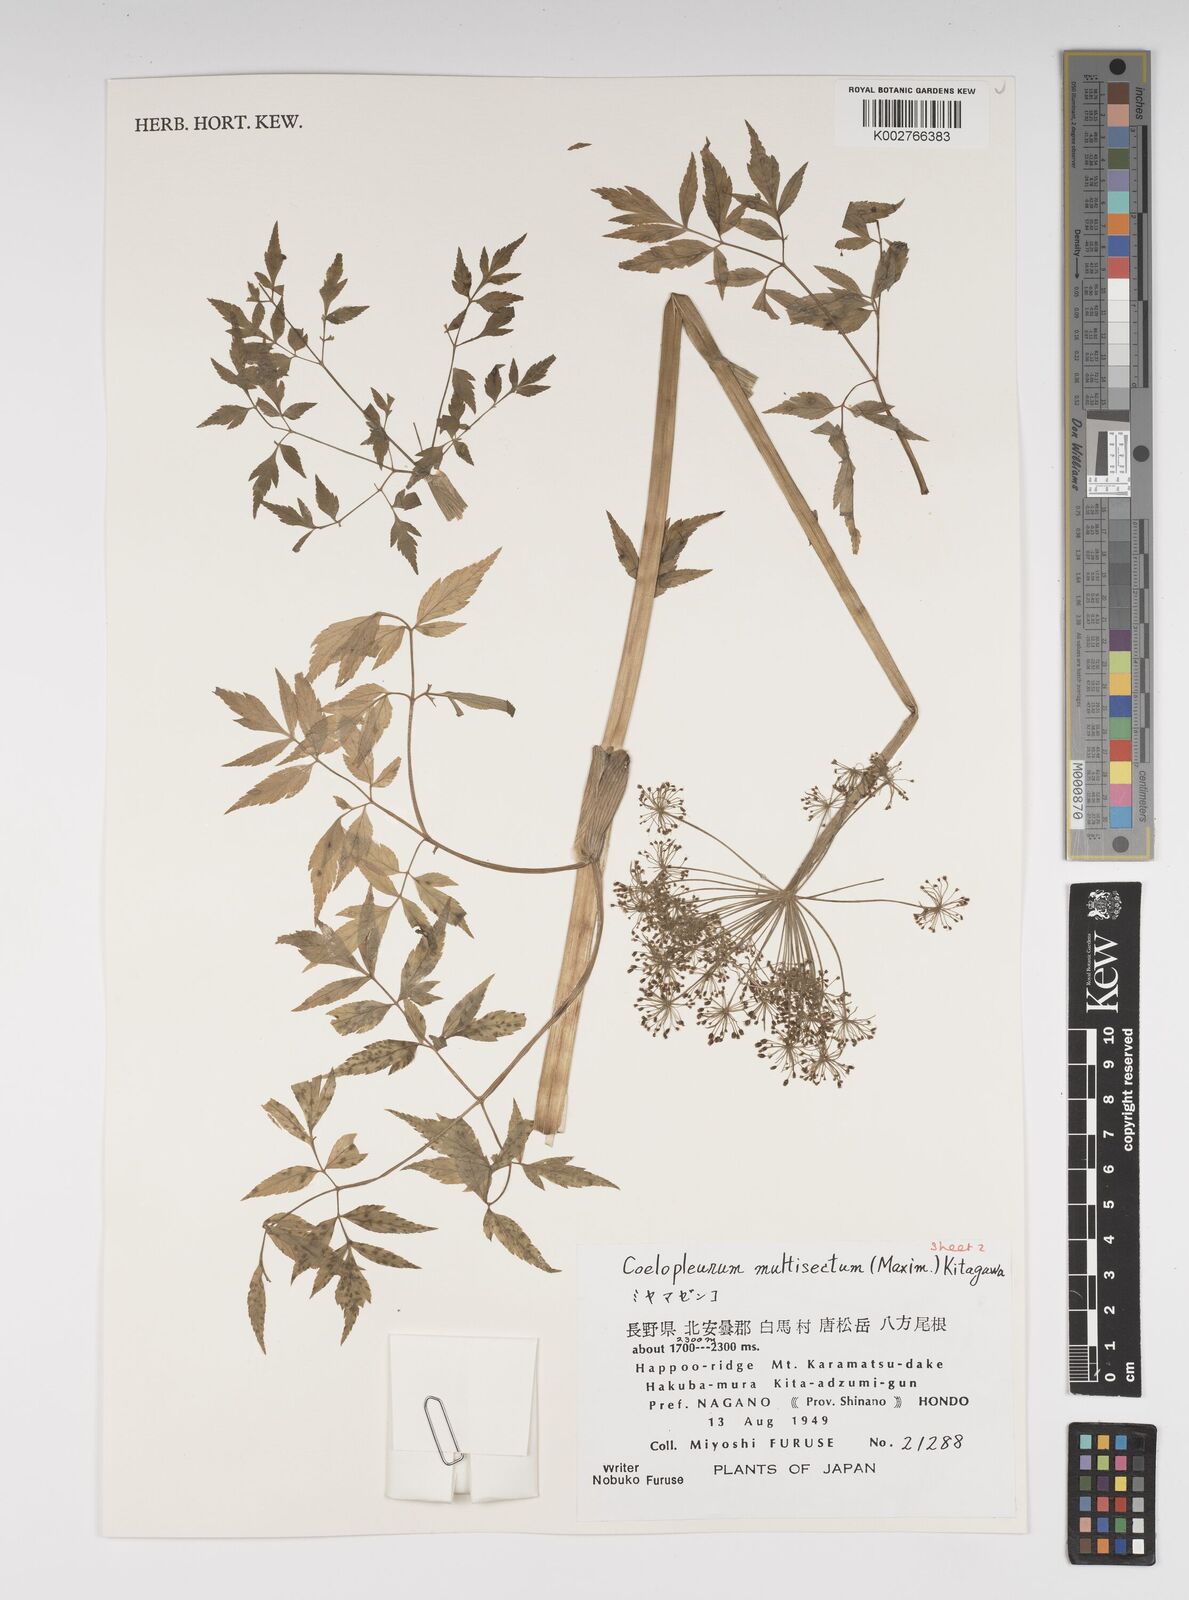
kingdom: Plantae
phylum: Tracheophyta
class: Magnoliopsida
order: Apiales
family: Apiaceae
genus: Angelica
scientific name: Angelica
